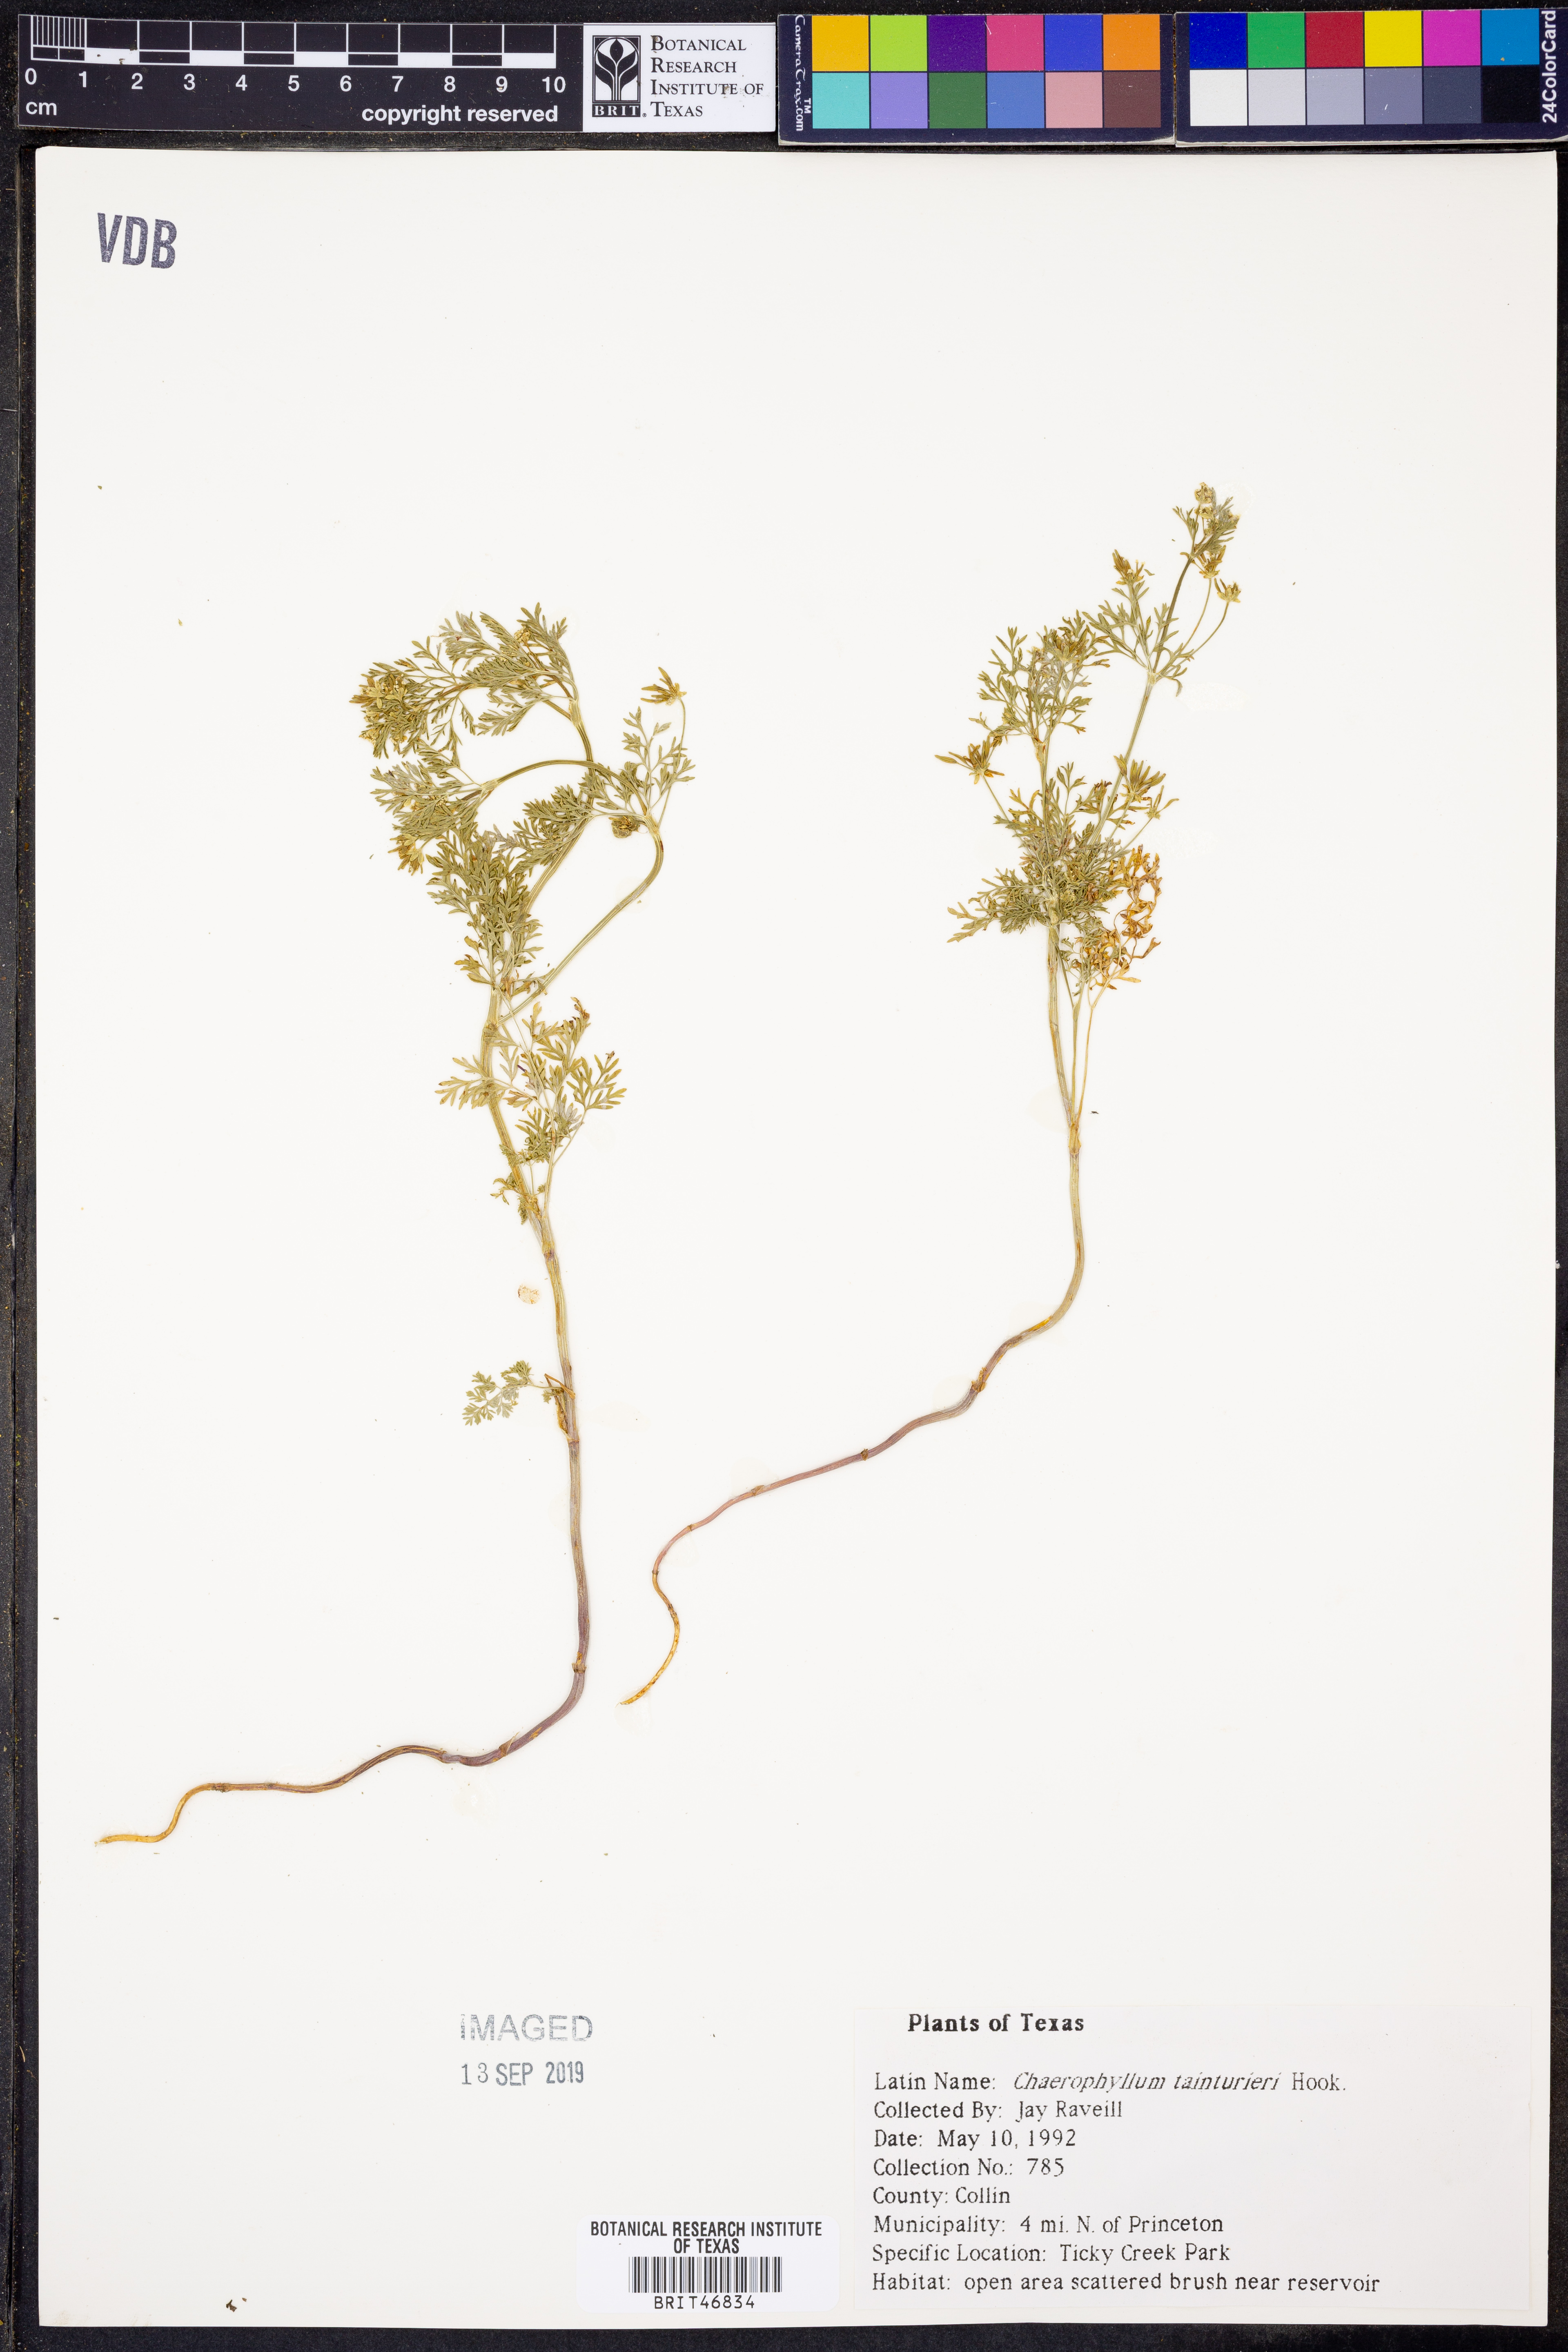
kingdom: Plantae
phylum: Tracheophyta
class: Magnoliopsida
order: Apiales
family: Apiaceae
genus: Chaerophyllum
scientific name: Chaerophyllum tainturieri
